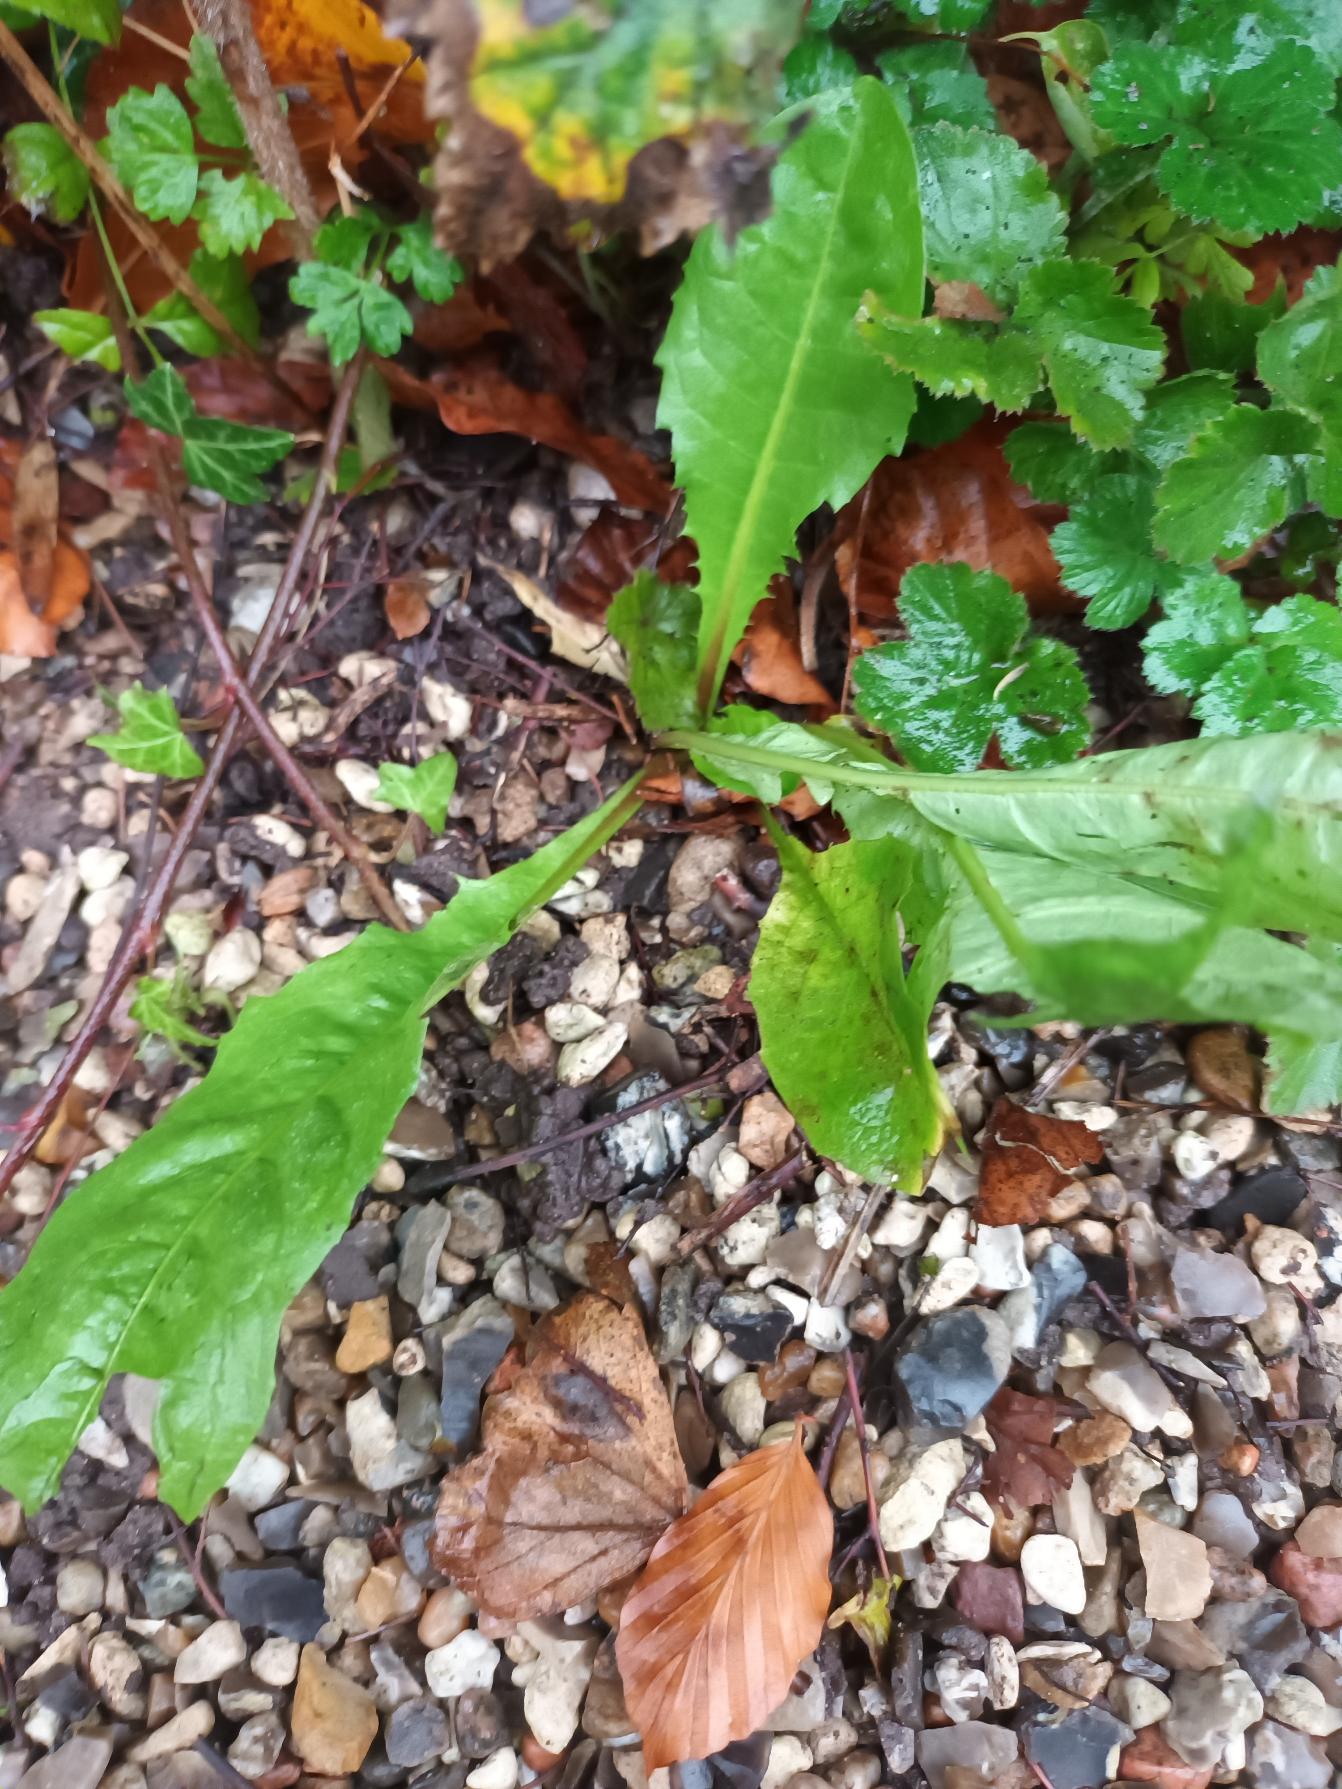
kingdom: Plantae
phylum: Tracheophyta
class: Magnoliopsida
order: Asterales
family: Asteraceae
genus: Taraxacum
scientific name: Taraxacum
